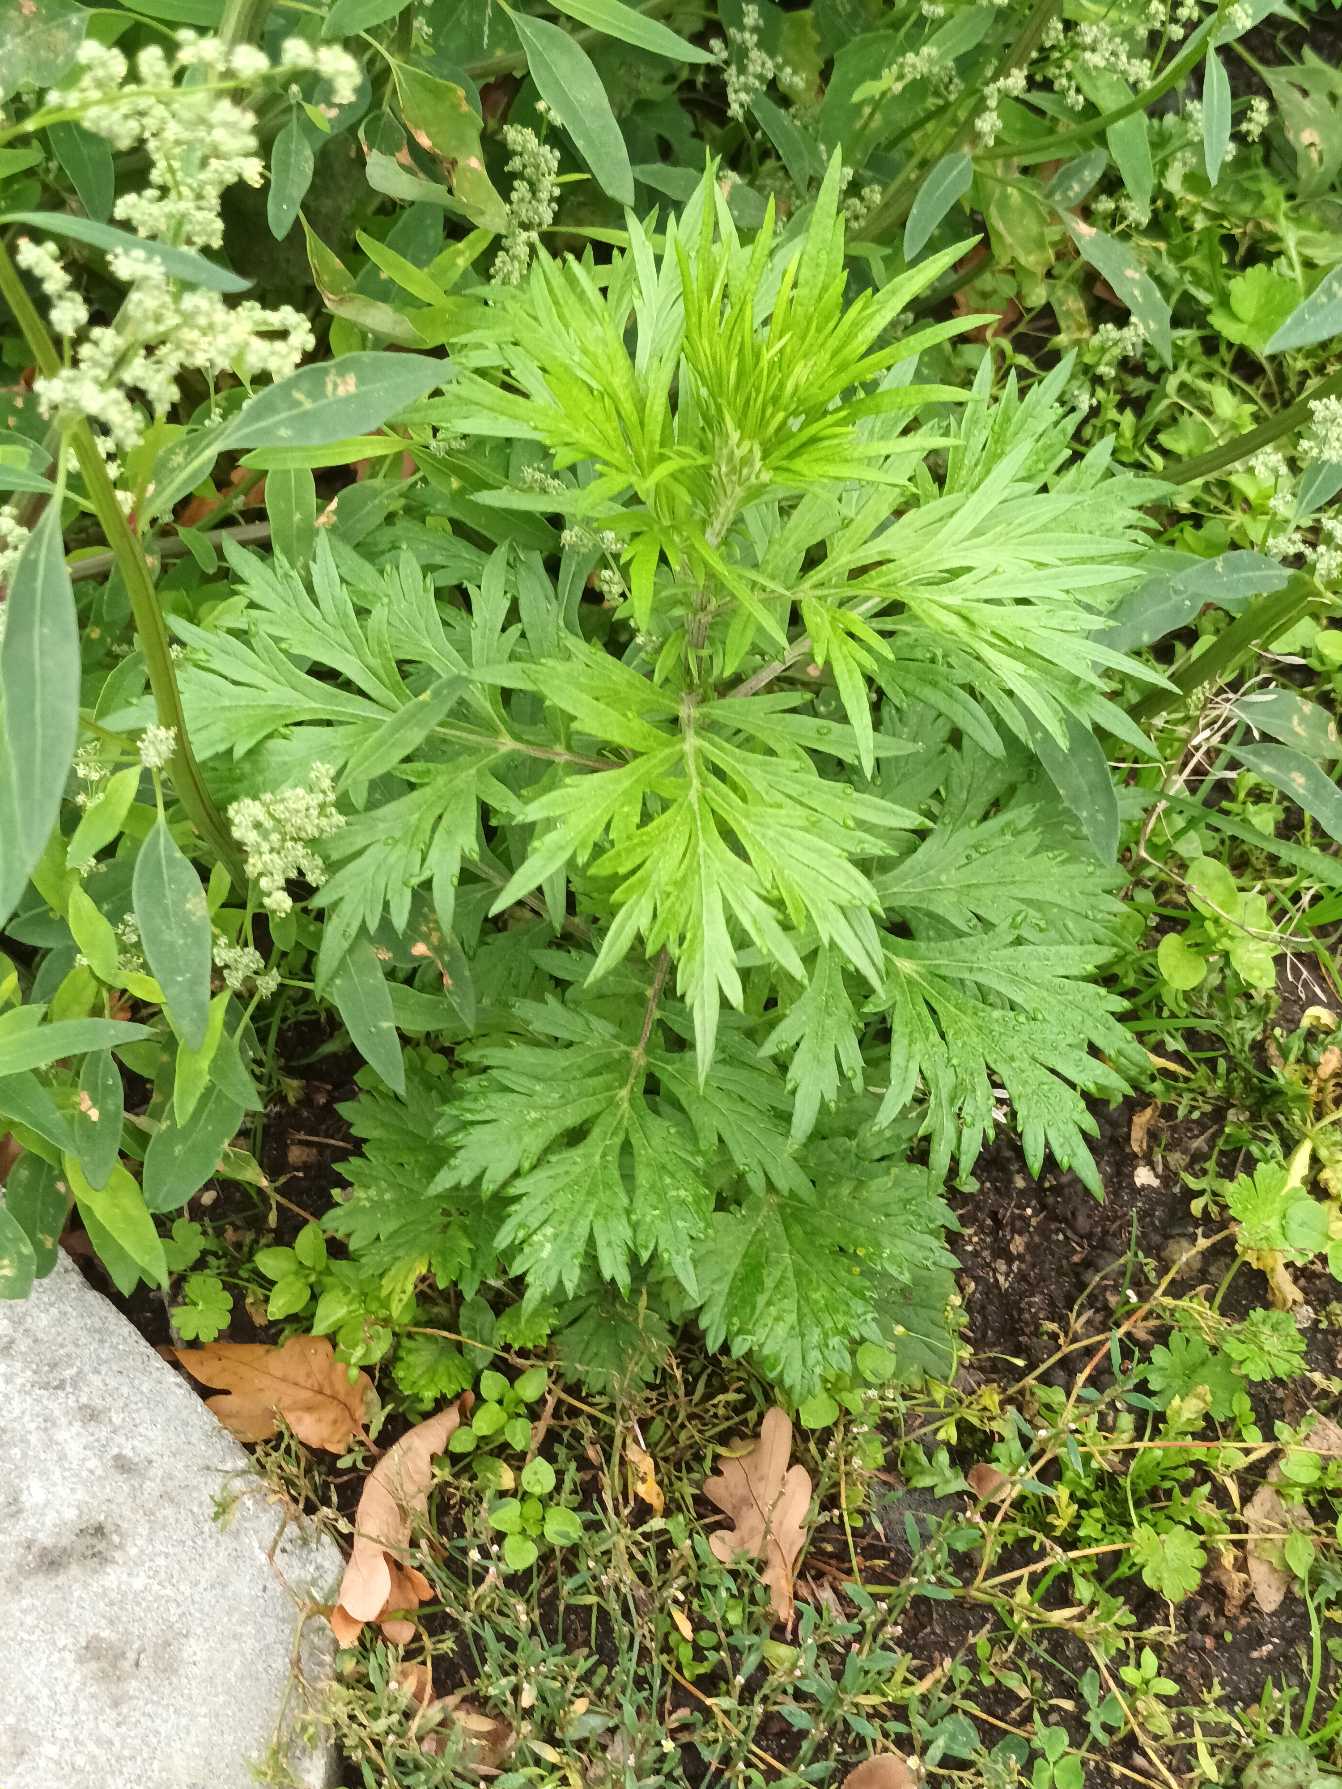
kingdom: Plantae
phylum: Tracheophyta
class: Magnoliopsida
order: Asterales
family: Asteraceae
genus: Artemisia
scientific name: Artemisia vulgaris
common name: Grå-bynke
